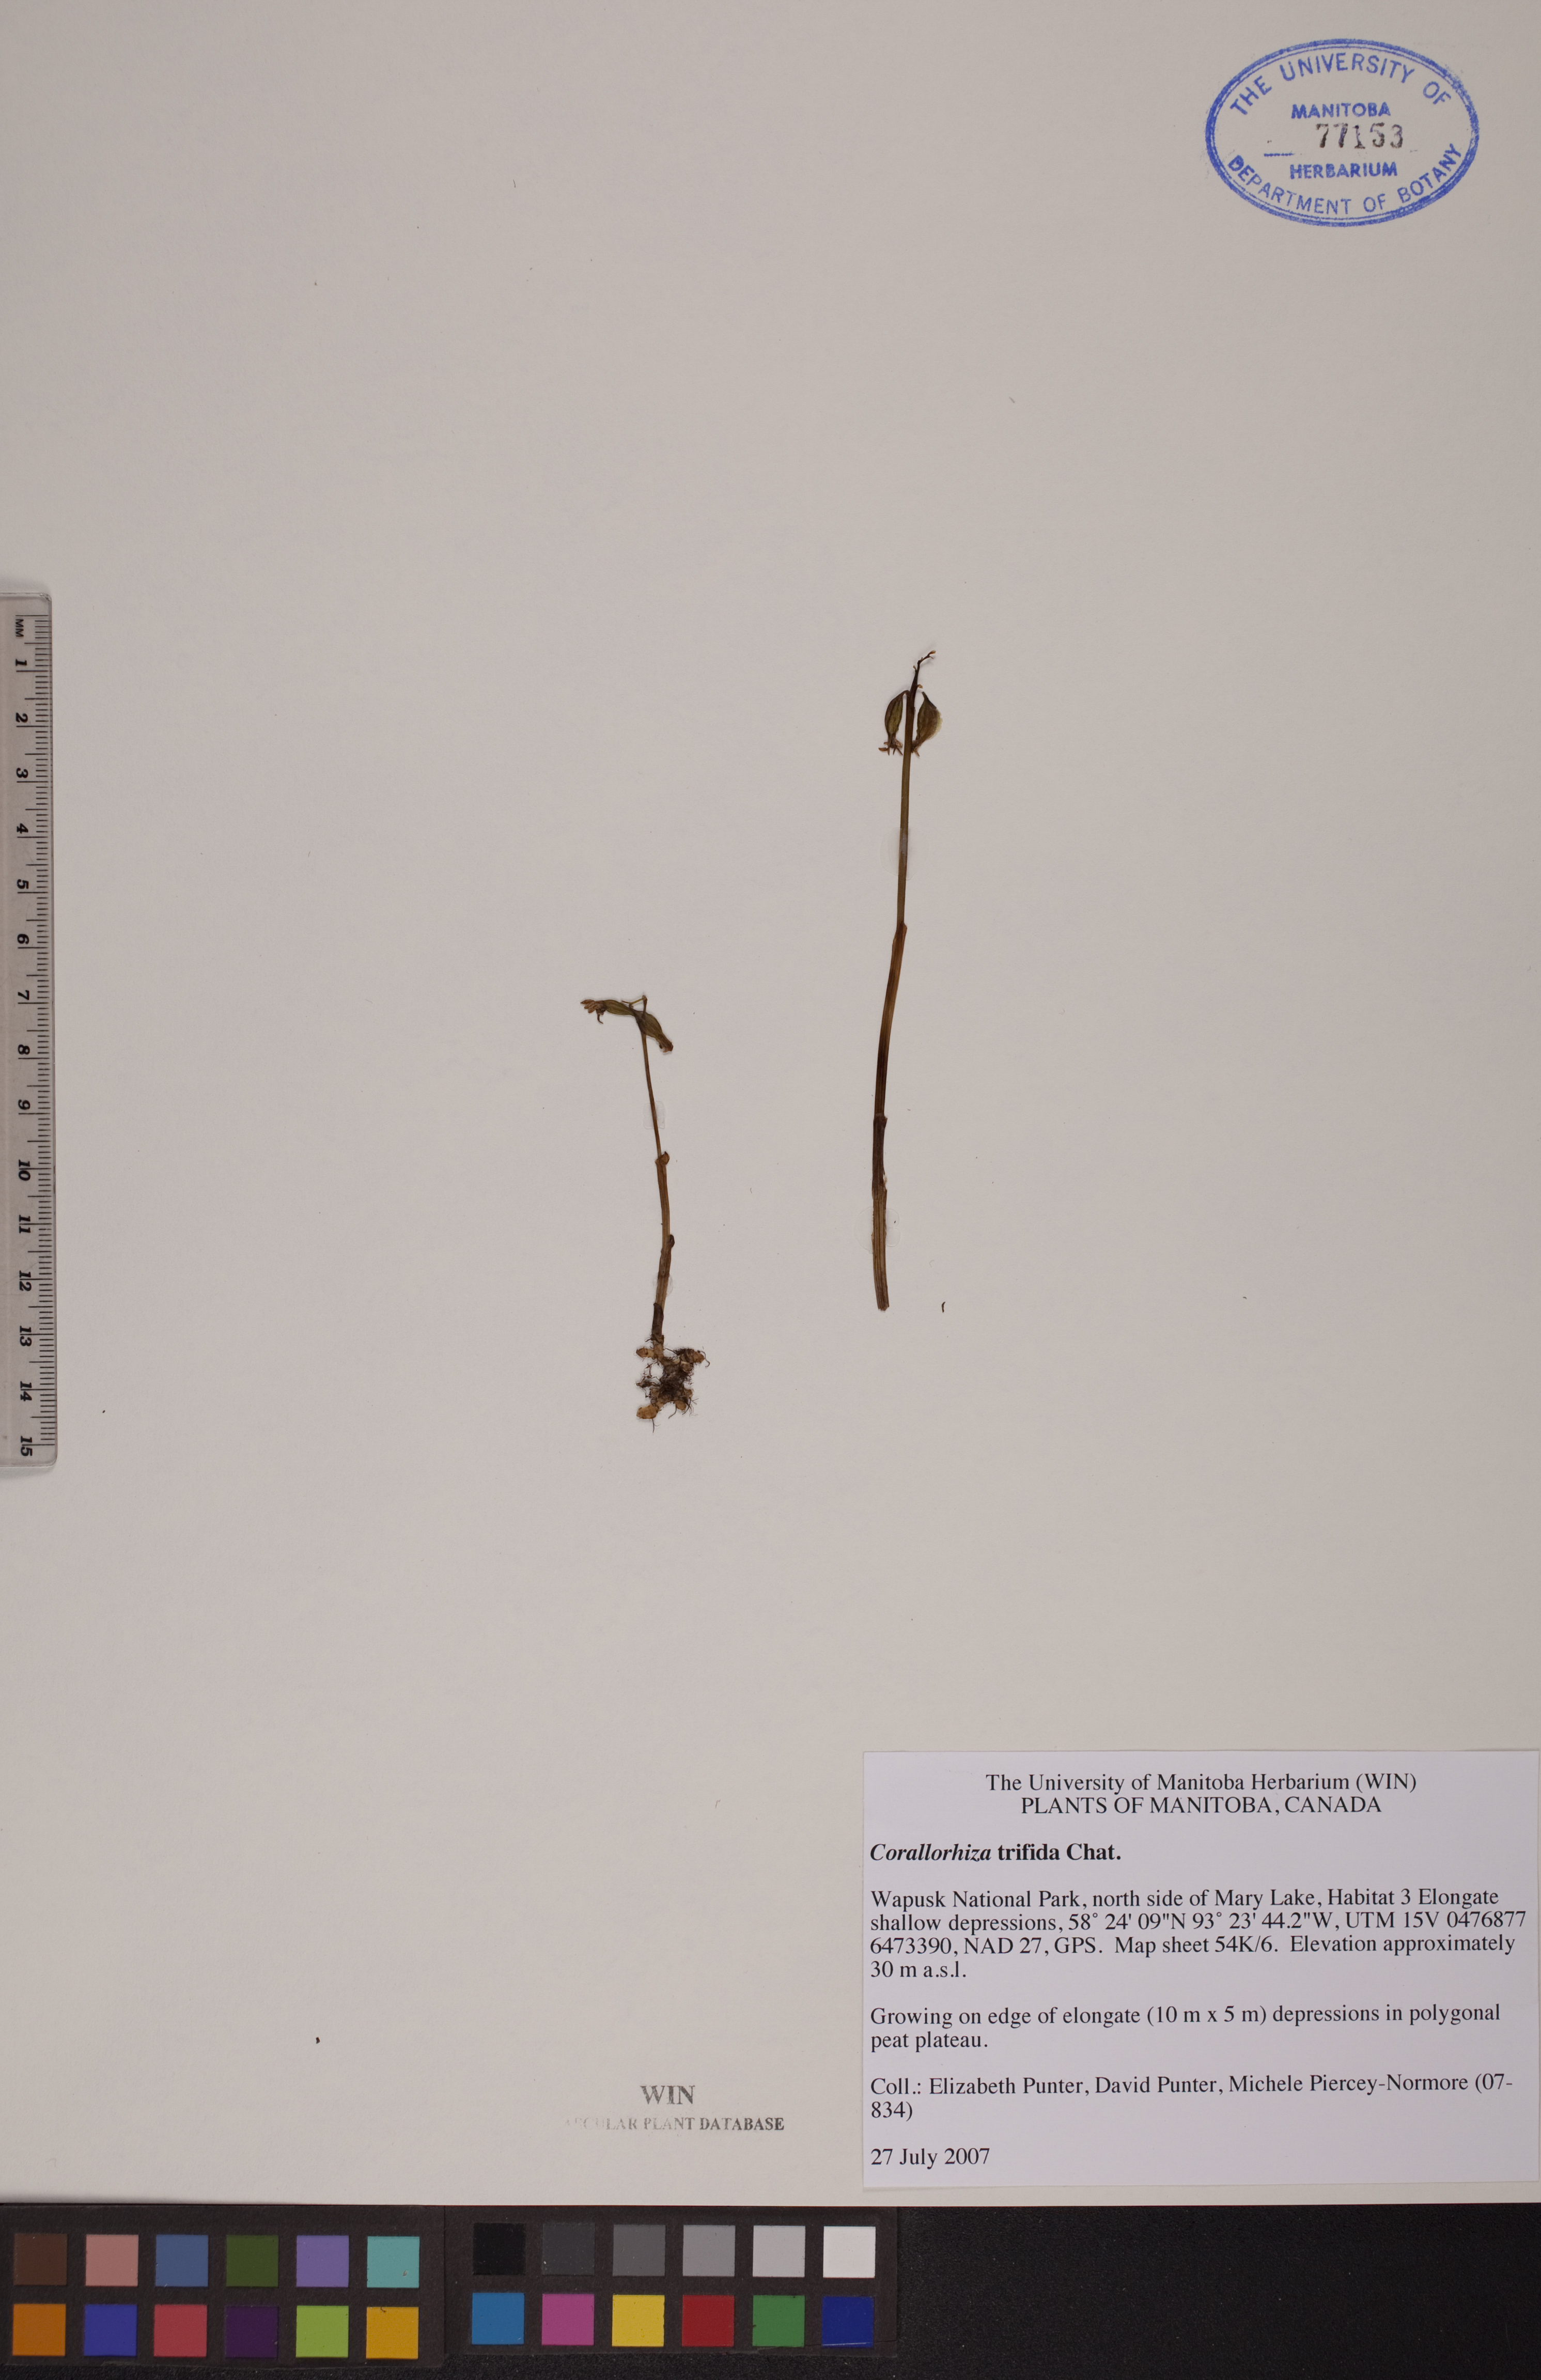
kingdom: Plantae
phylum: Tracheophyta
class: Liliopsida
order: Asparagales
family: Orchidaceae
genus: Corallorhiza
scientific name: Corallorhiza trifida
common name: Yellow coralroot
